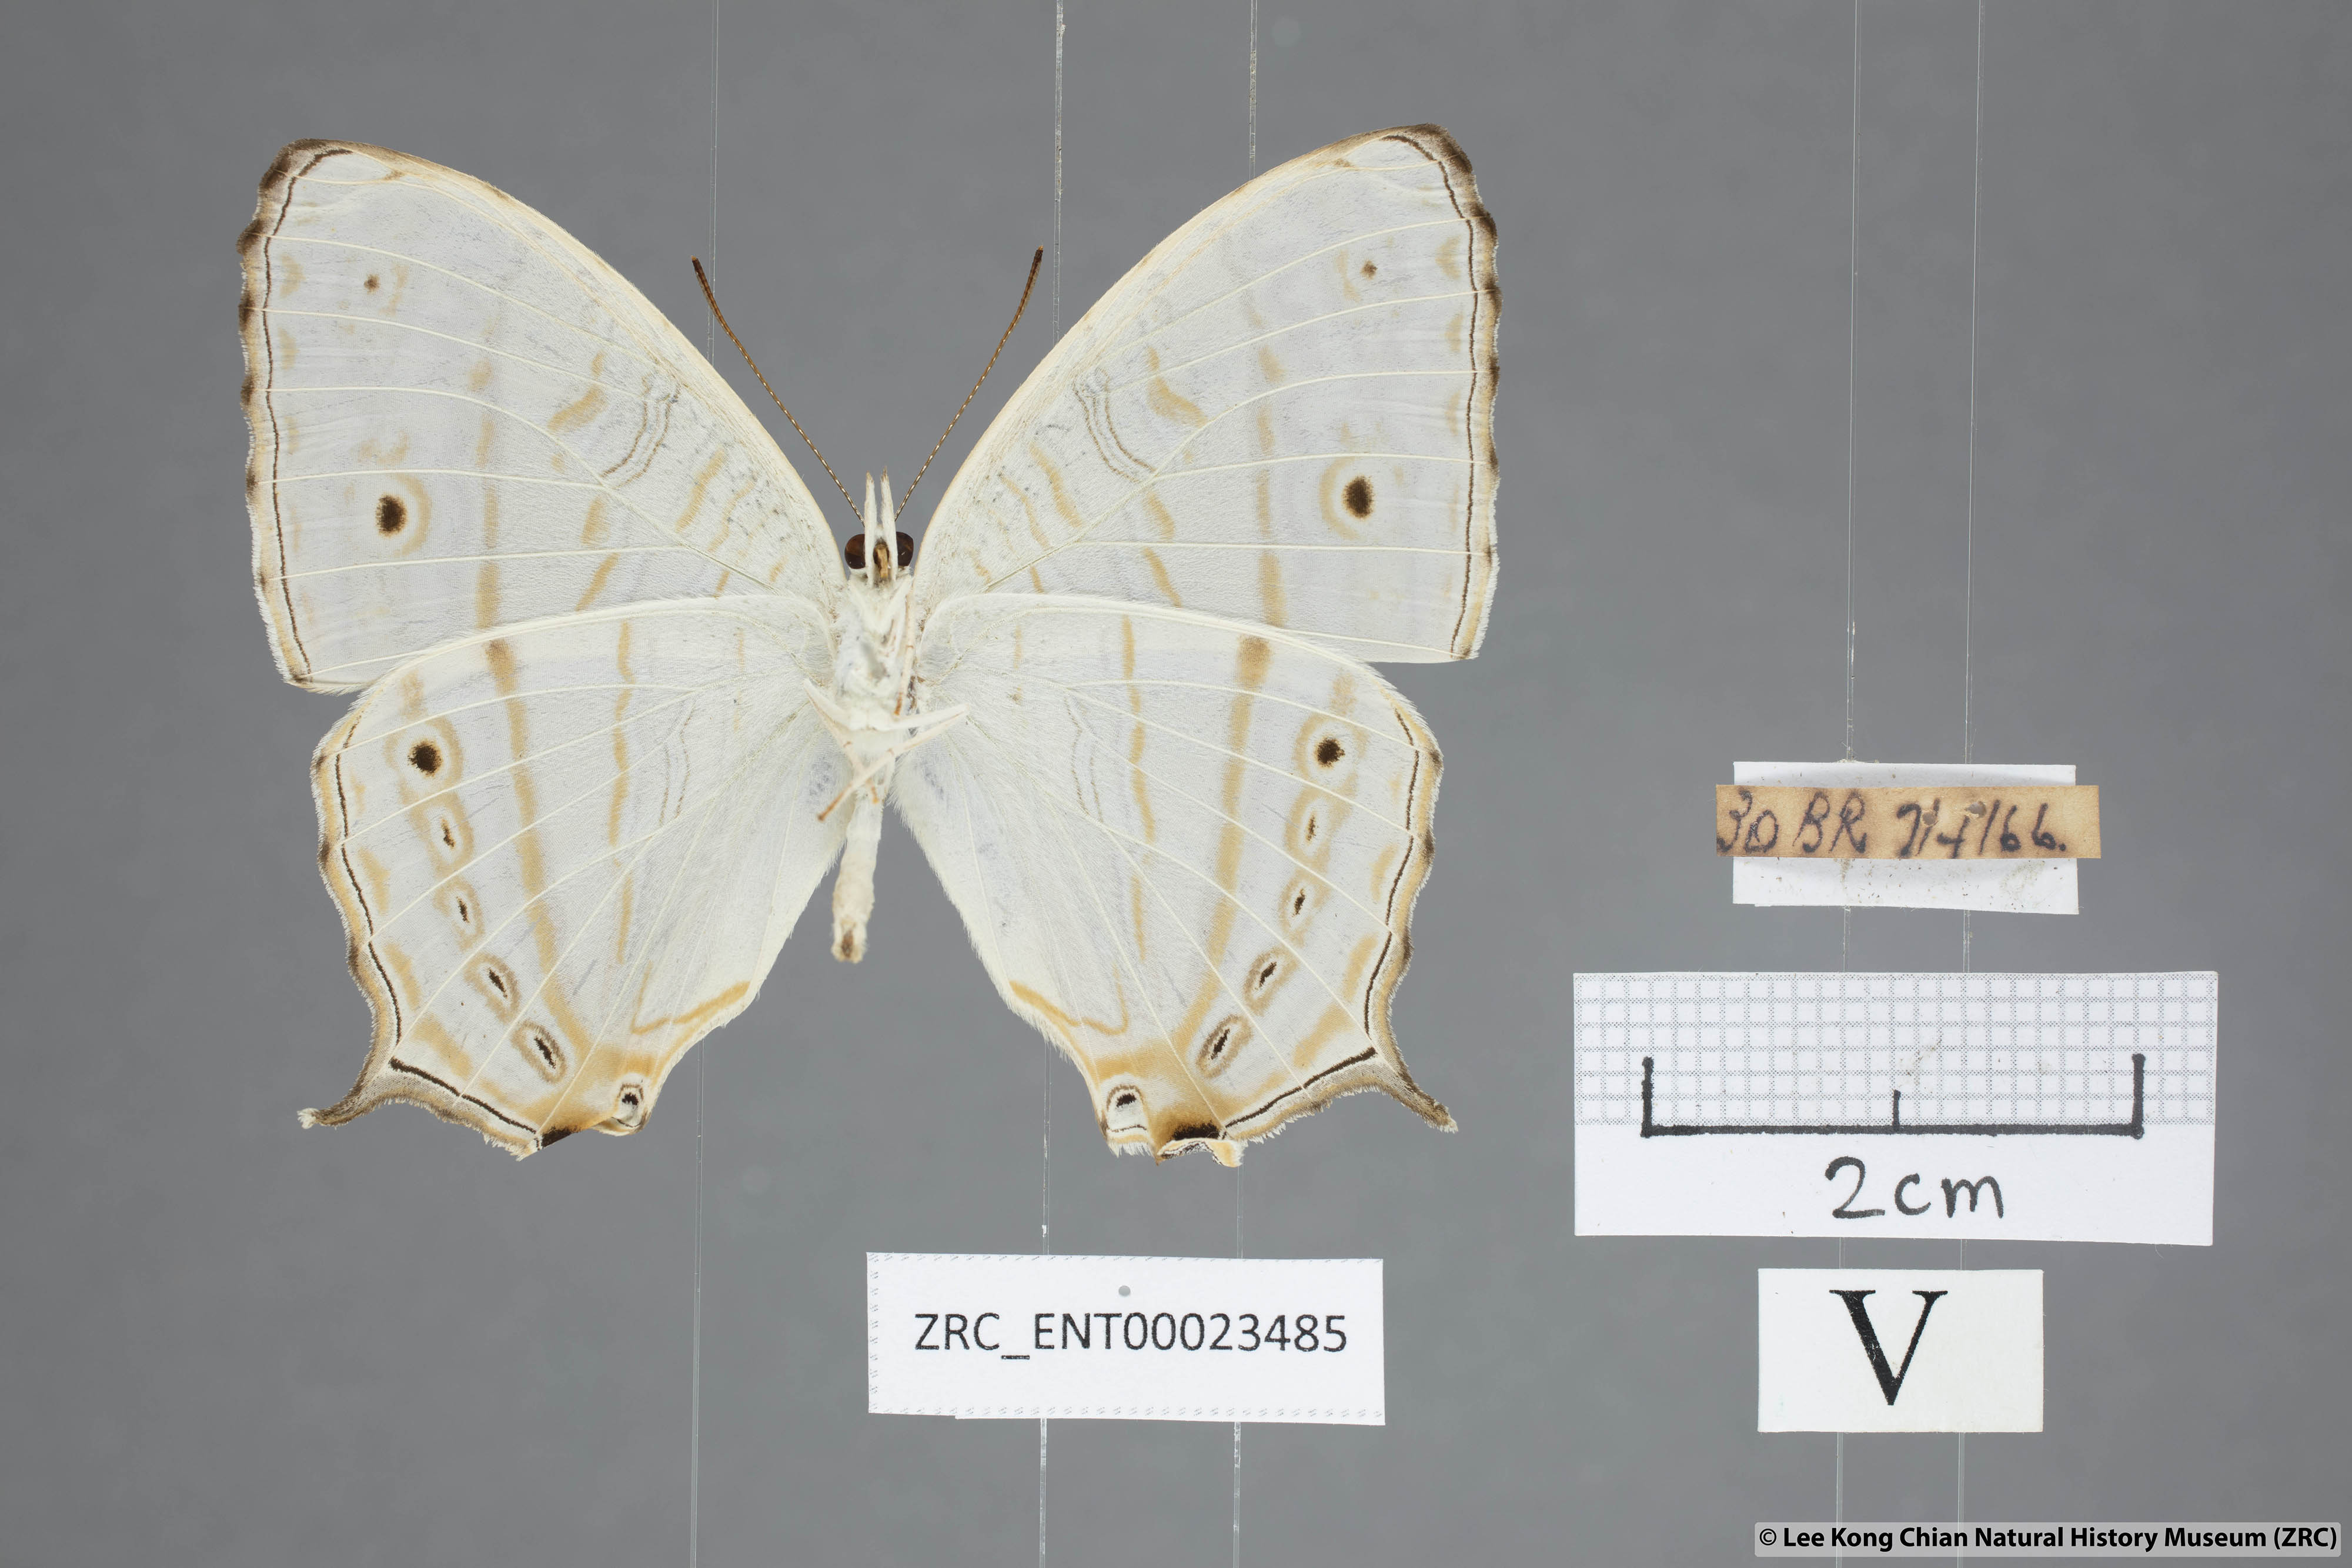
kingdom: Animalia
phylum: Arthropoda
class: Insecta
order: Lepidoptera
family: Nymphalidae
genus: Cyrestis
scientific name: Cyrestis cocles
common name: Marbled map
